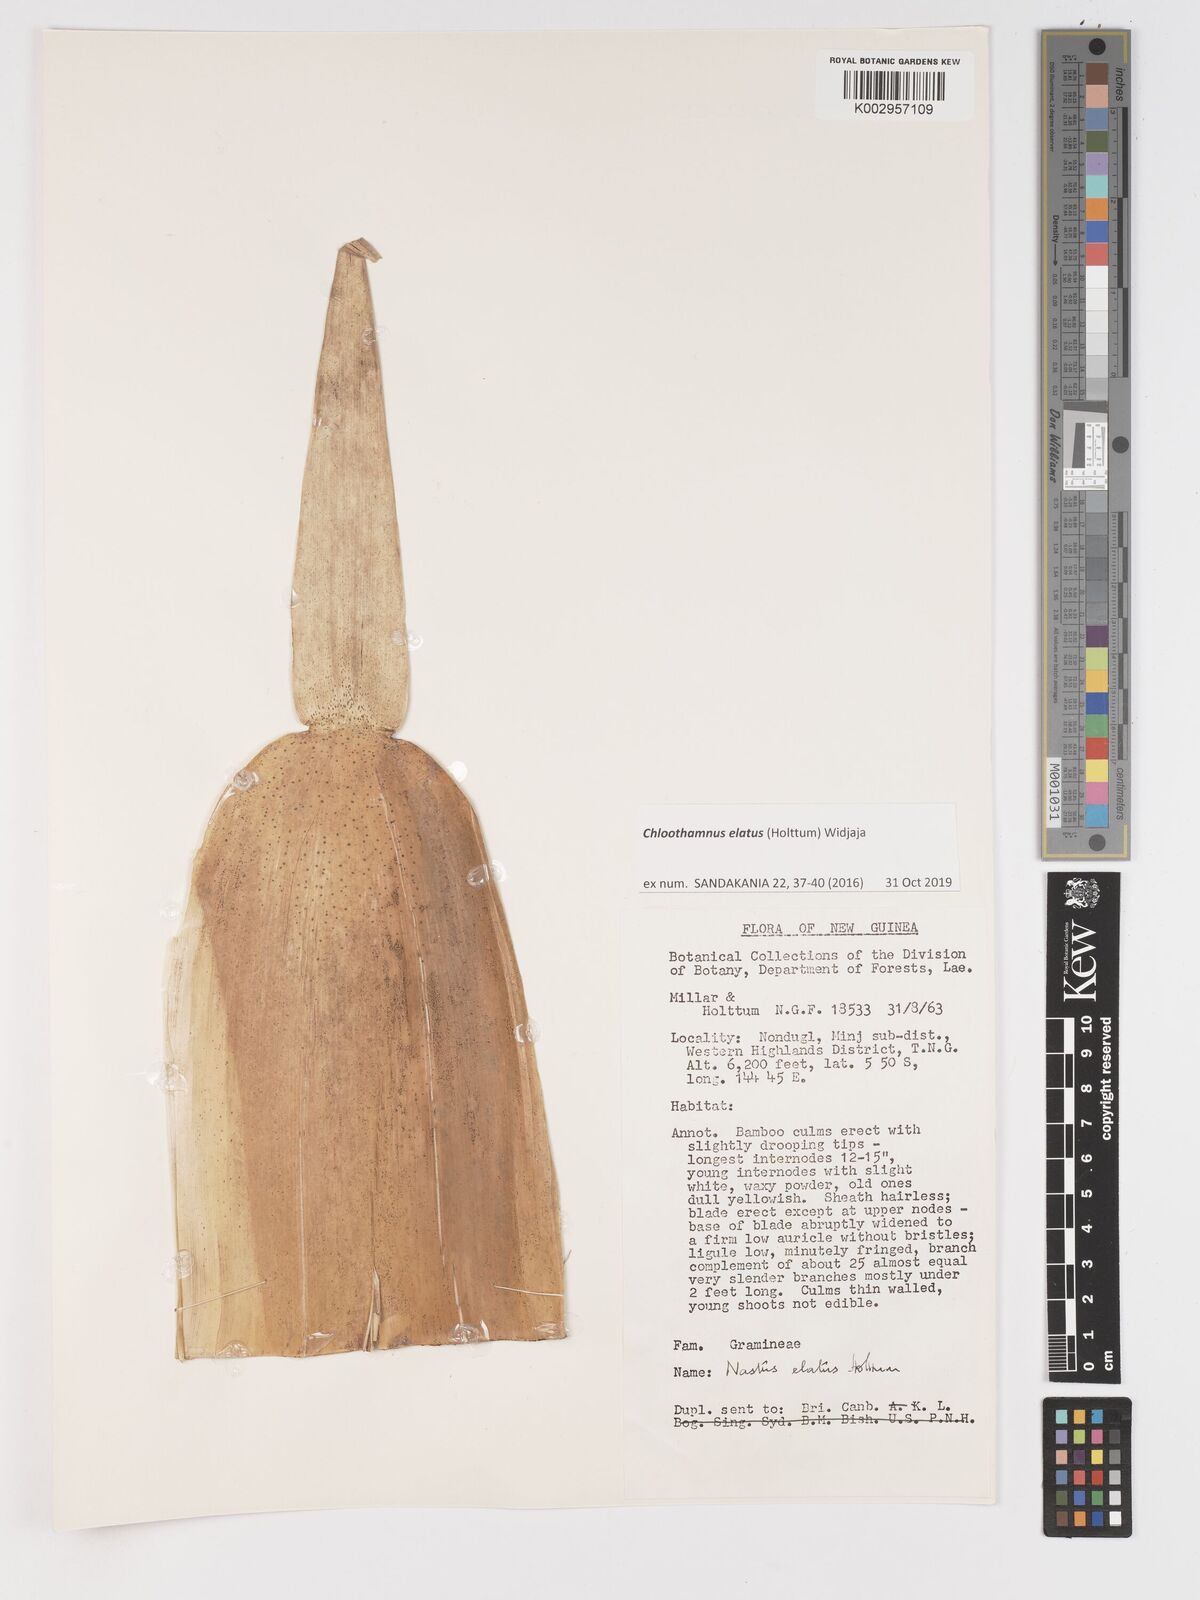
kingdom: Plantae
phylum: Tracheophyta
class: Liliopsida
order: Poales
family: Poaceae
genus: Chloothamnus
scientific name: Chloothamnus elatus
